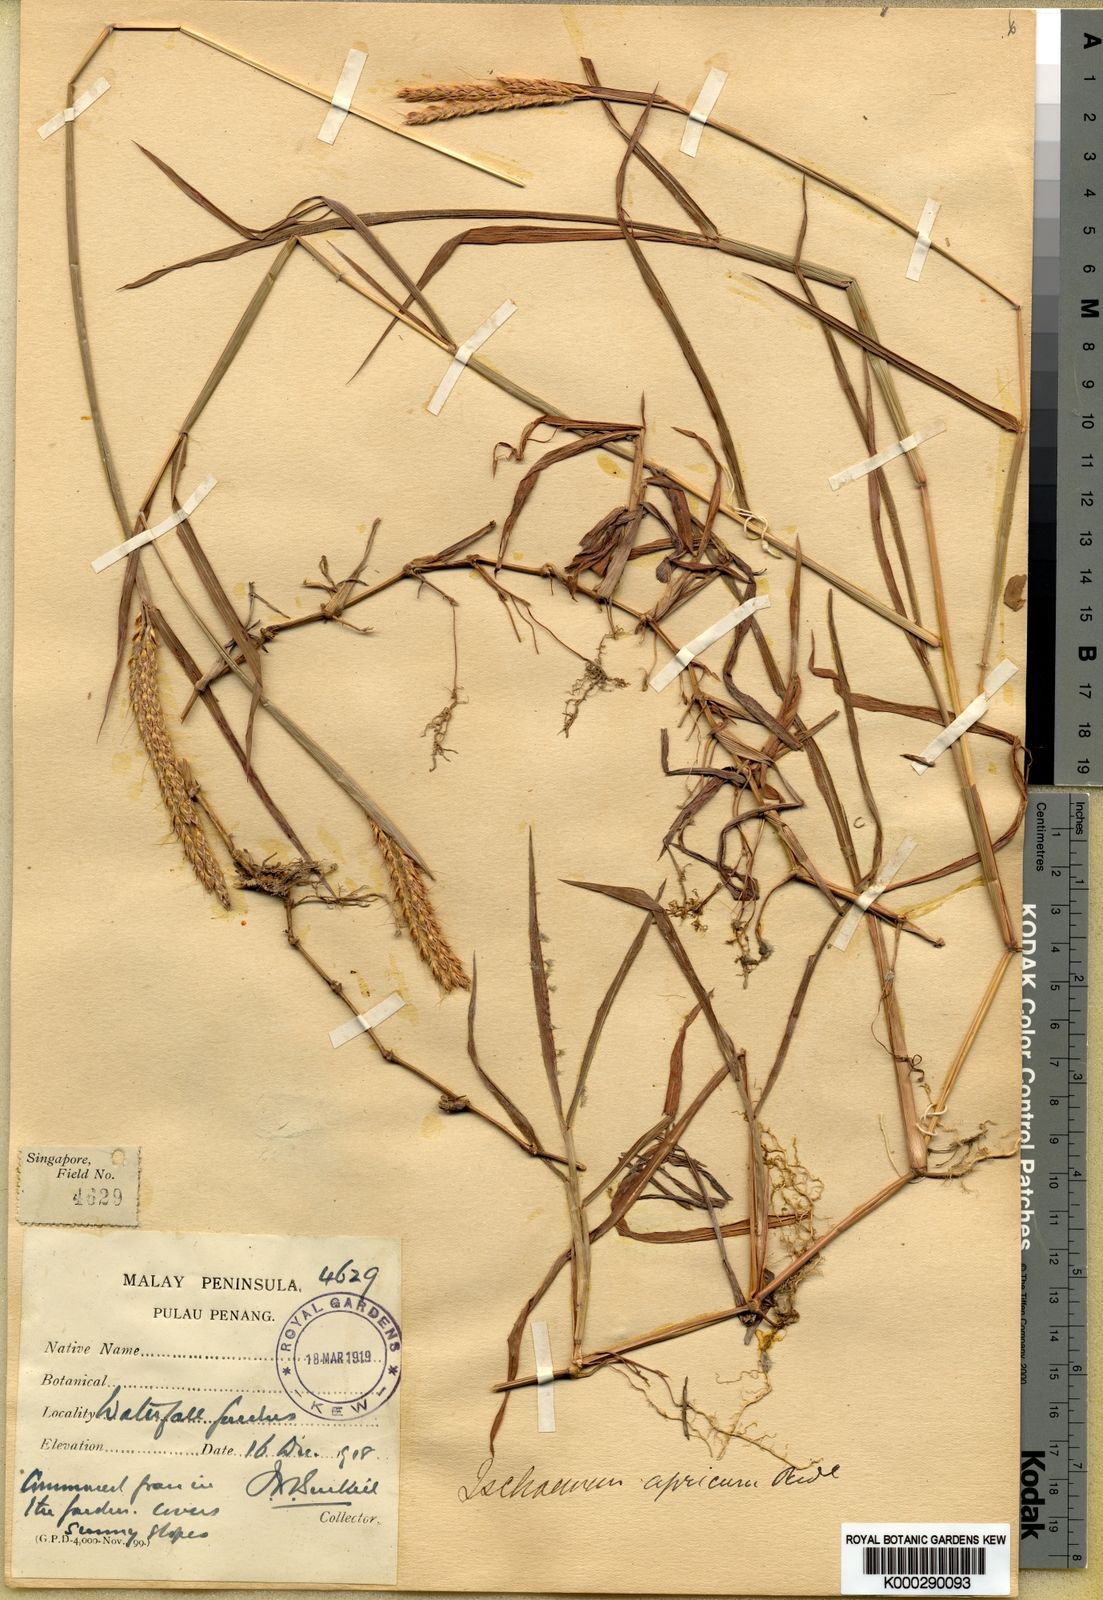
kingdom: Plantae
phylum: Tracheophyta
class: Liliopsida
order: Poales
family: Poaceae
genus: Ischaemum
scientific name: Ischaemum ciliare
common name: Grass
